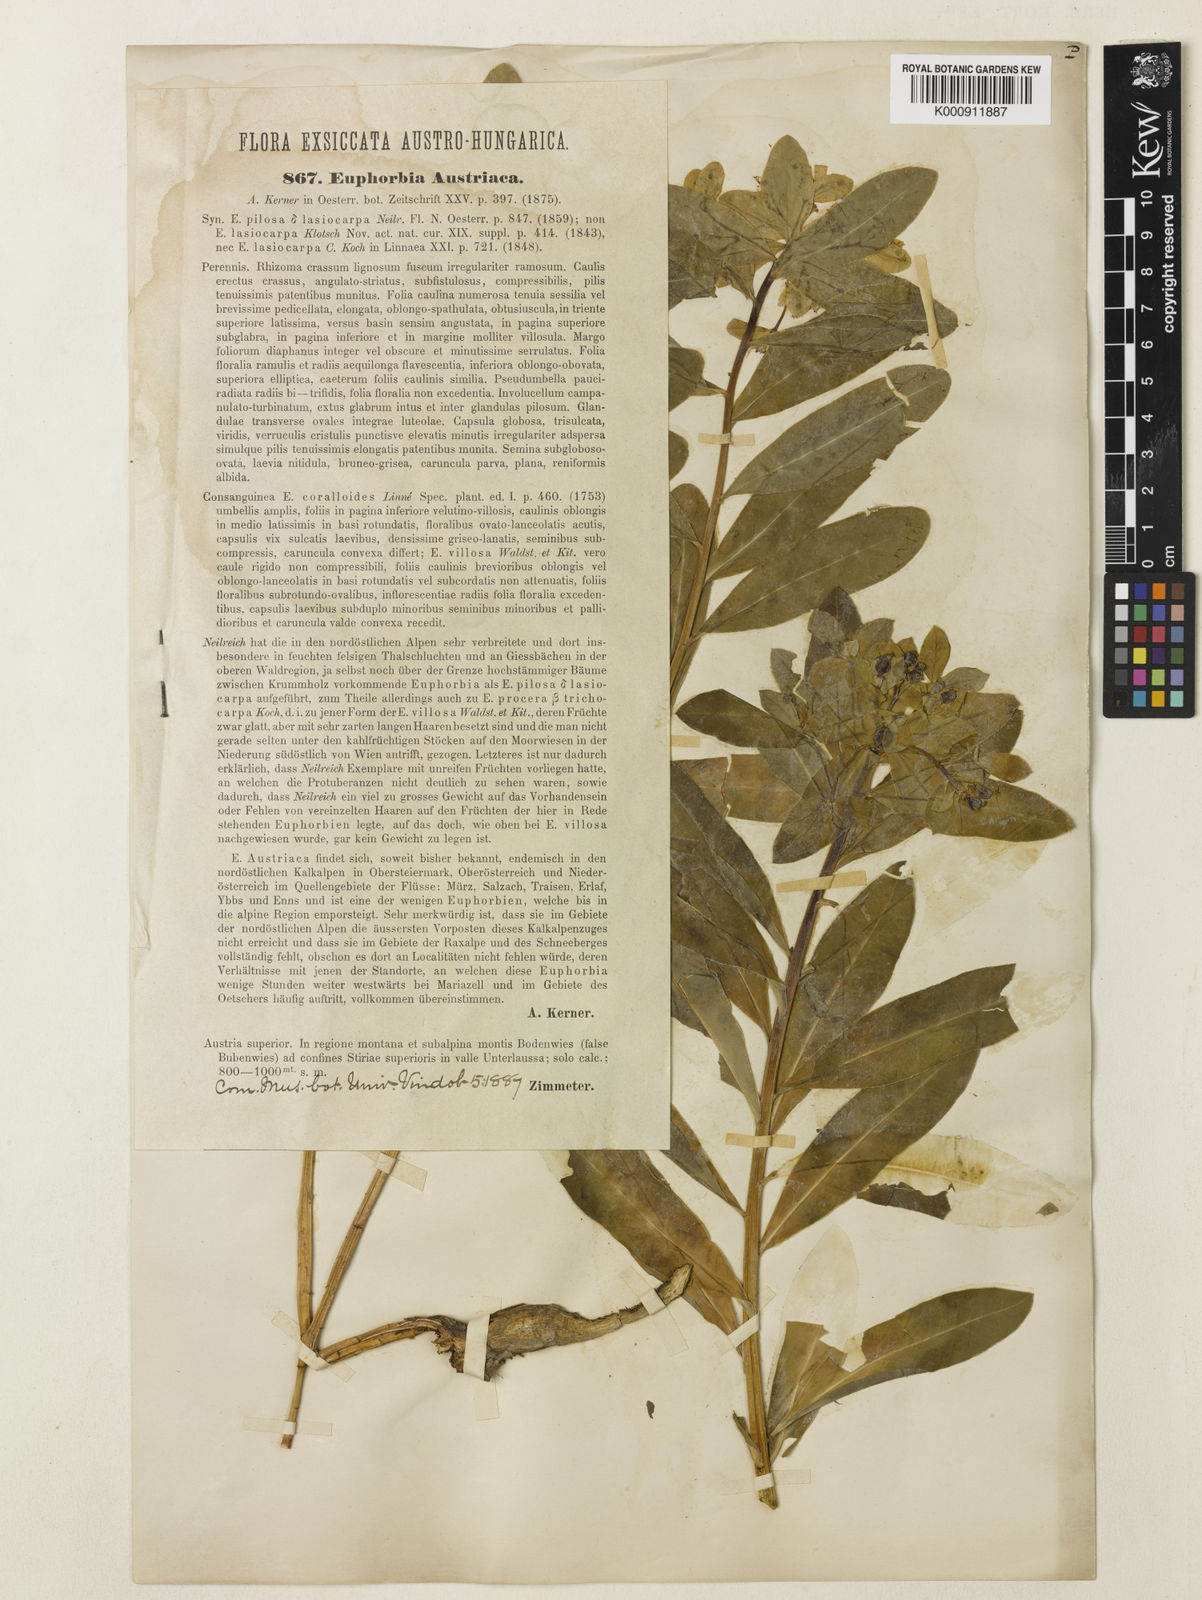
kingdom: Plantae
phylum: Tracheophyta
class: Magnoliopsida
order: Malpighiales
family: Euphorbiaceae
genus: Euphorbia
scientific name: Euphorbia austriaca
